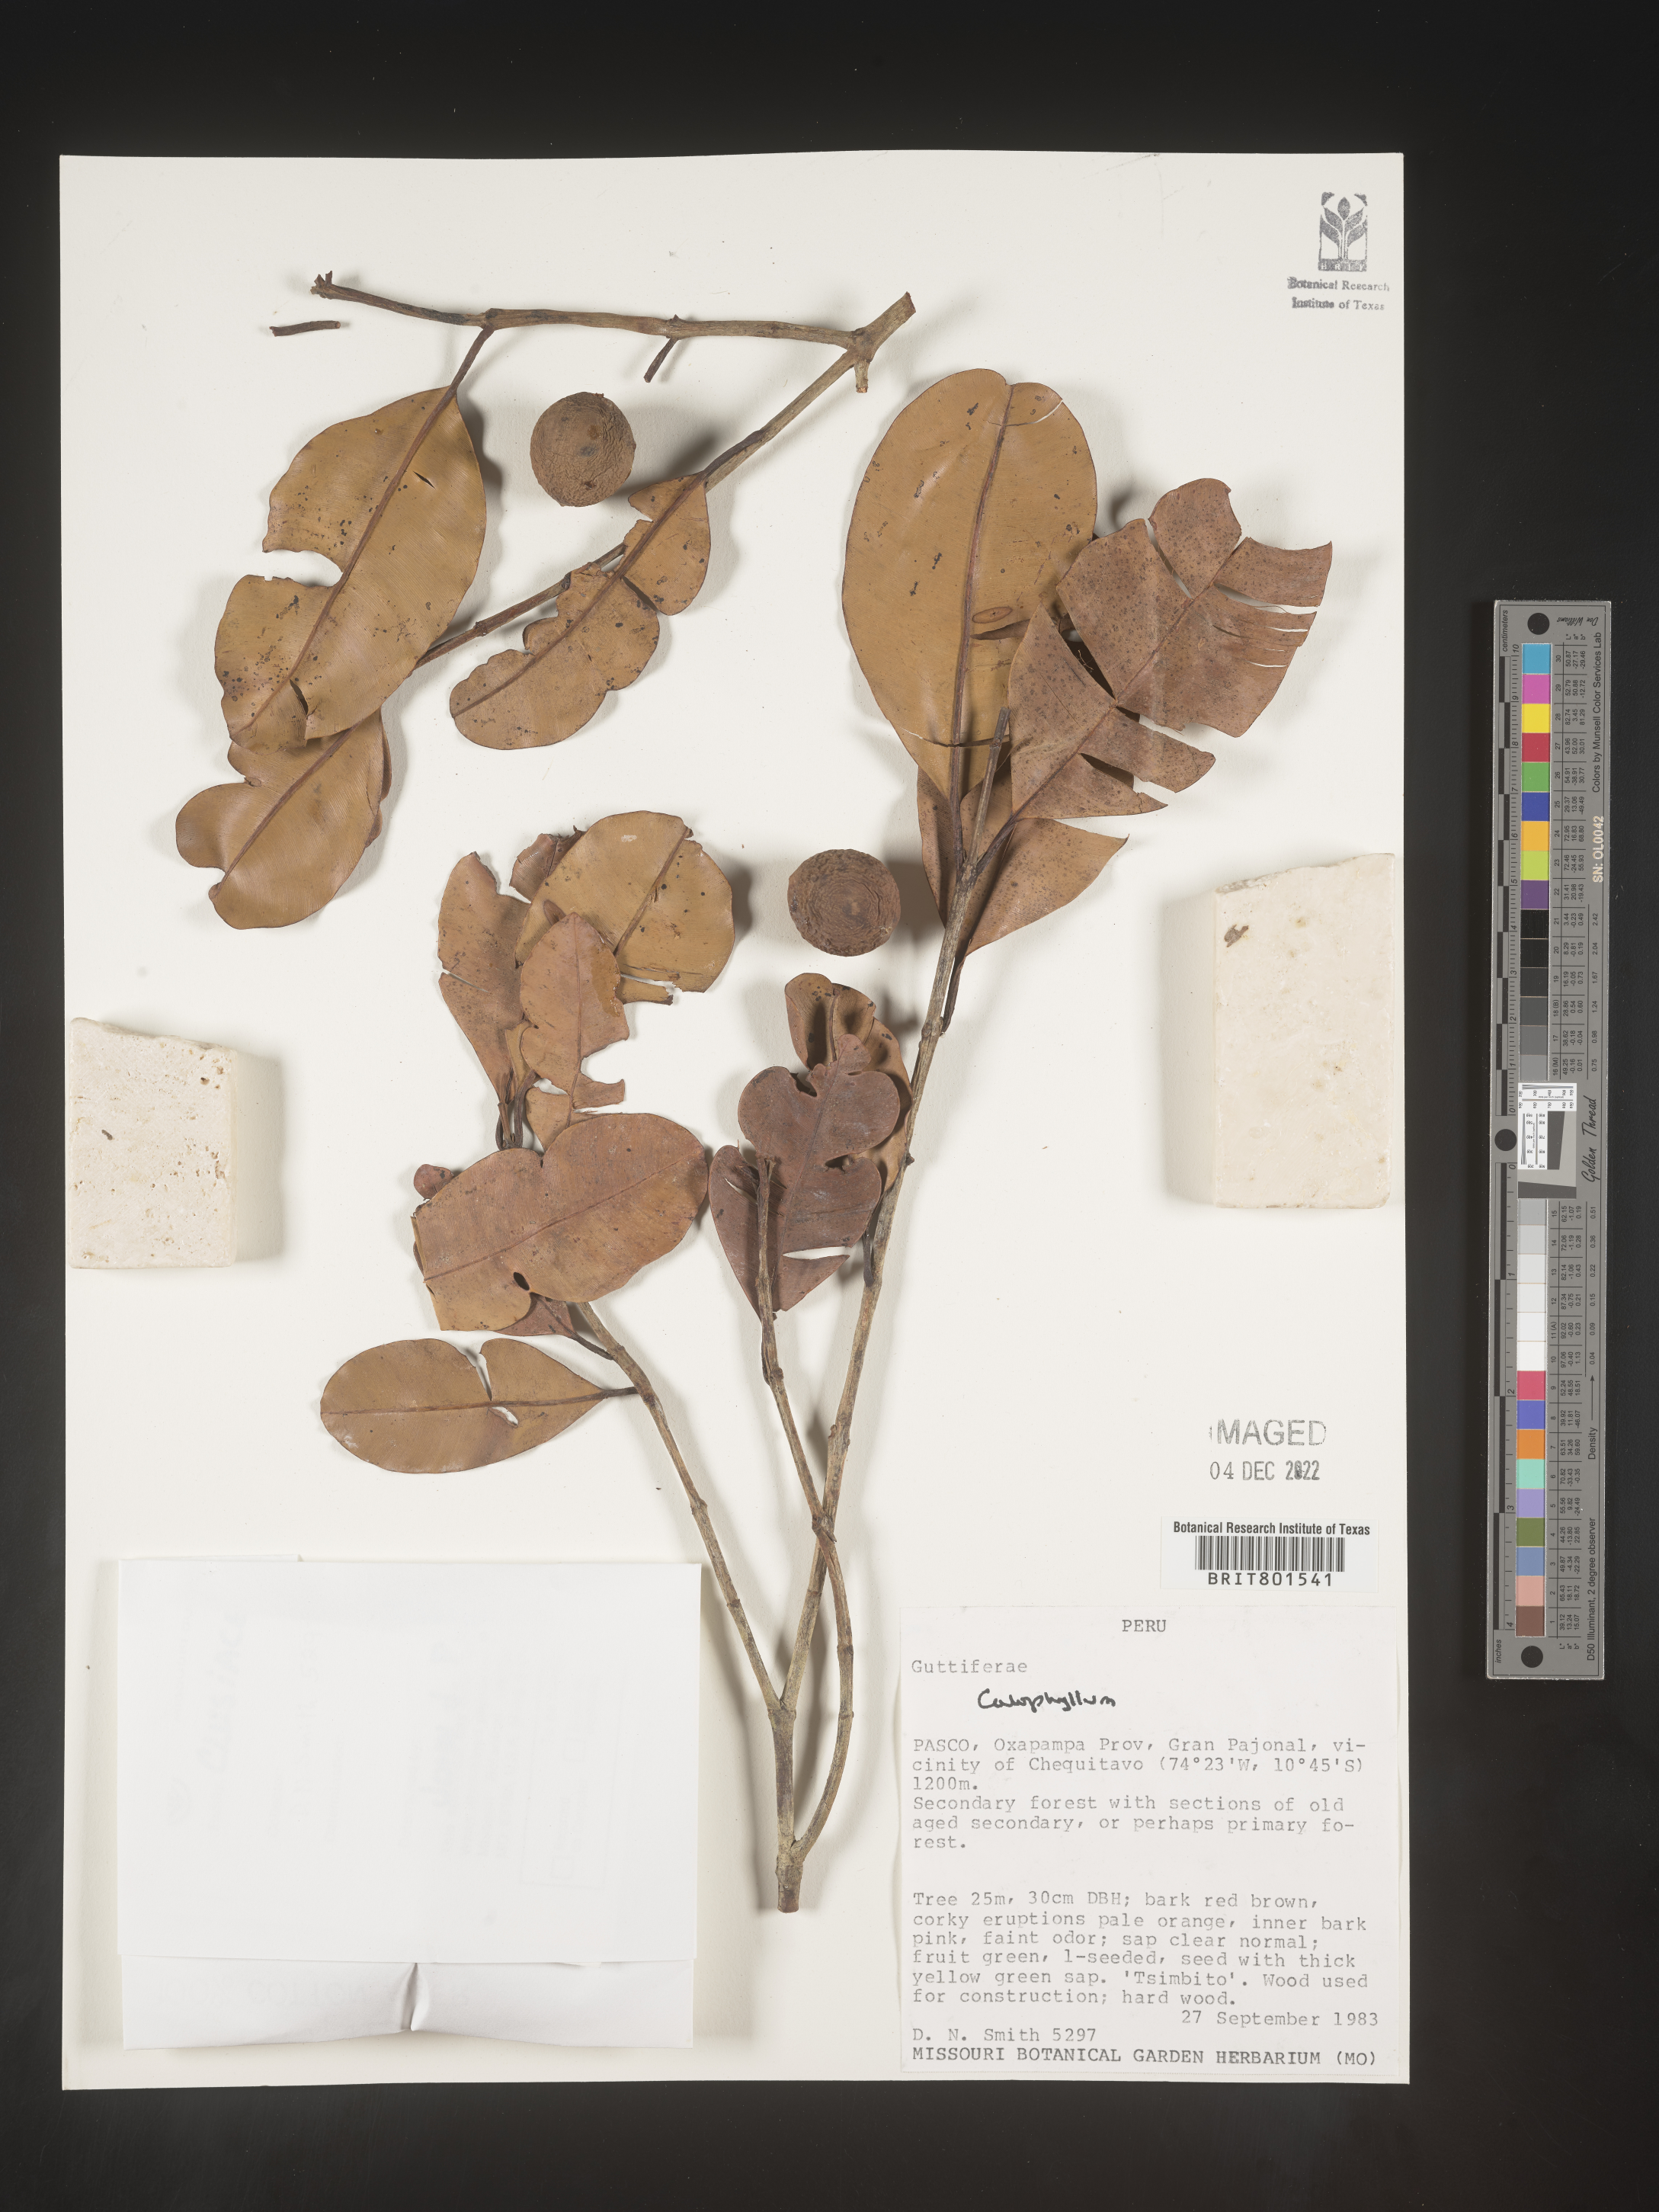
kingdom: Plantae
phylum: Tracheophyta
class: Magnoliopsida
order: Malpighiales
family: Calophyllaceae
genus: Calophyllum
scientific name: Calophyllum
